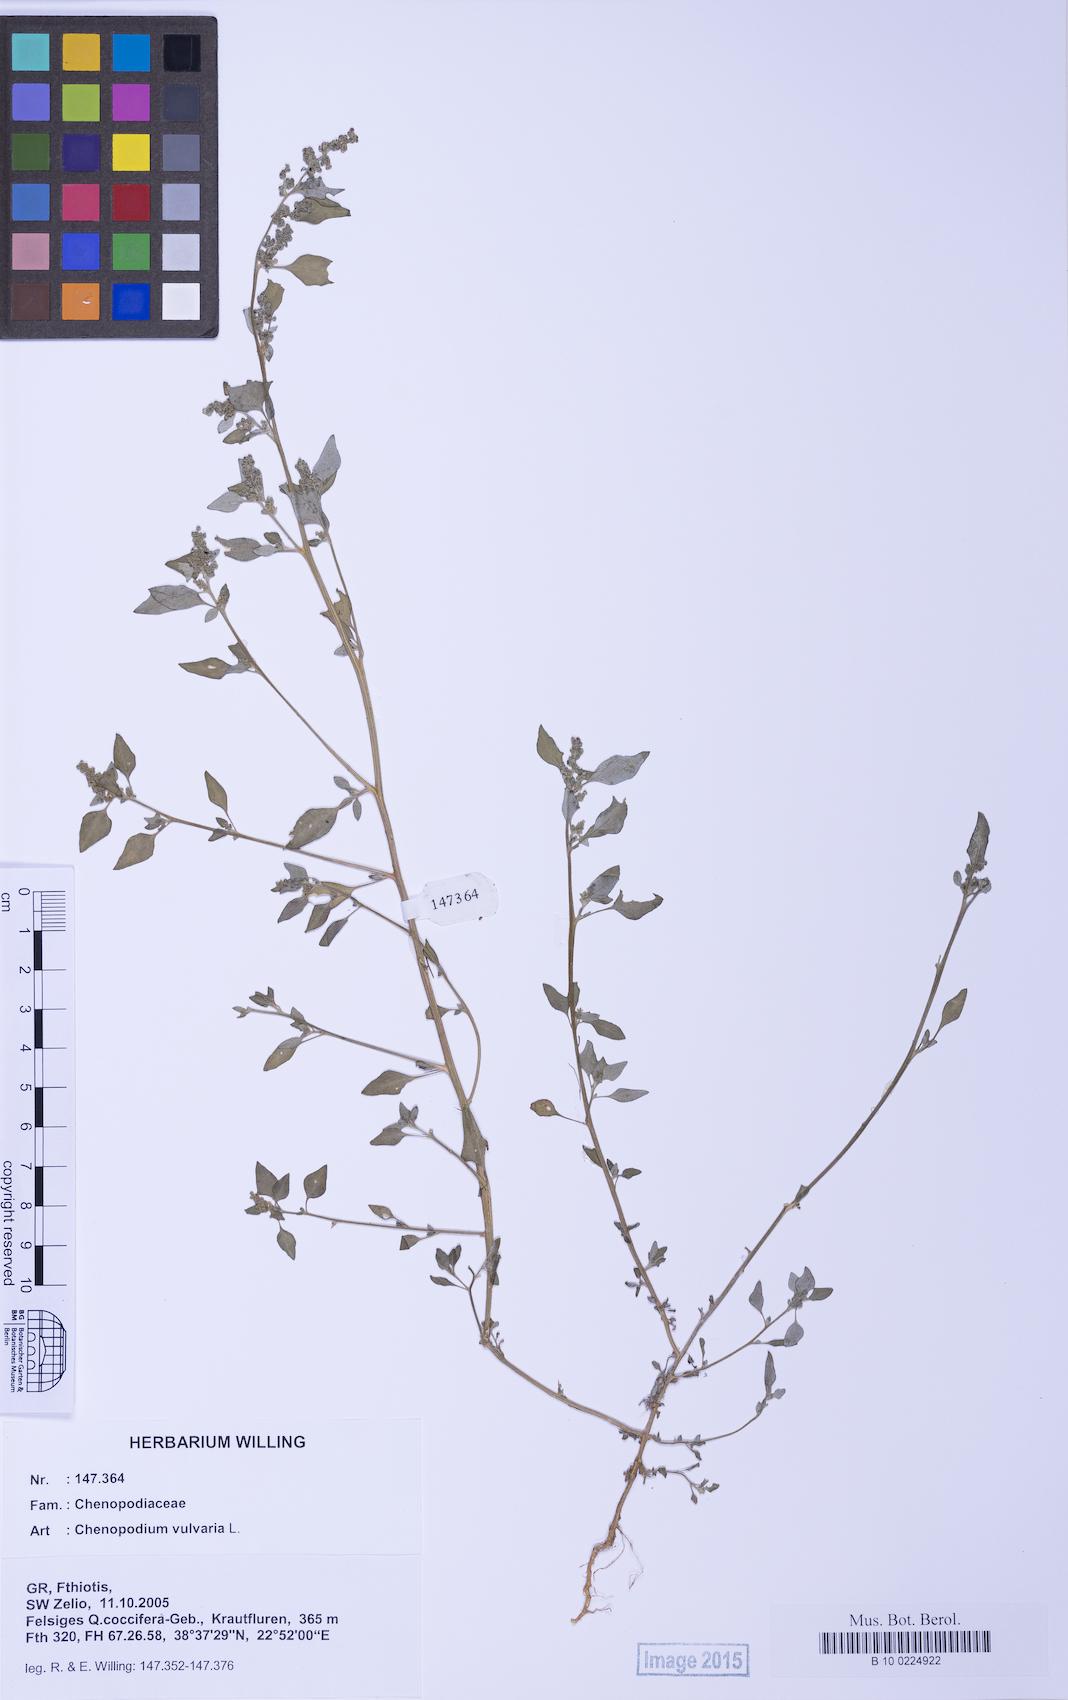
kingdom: Plantae
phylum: Tracheophyta
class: Magnoliopsida
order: Caryophyllales
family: Amaranthaceae
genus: Chenopodium
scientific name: Chenopodium vulvaria
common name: Stinking goosefoot
